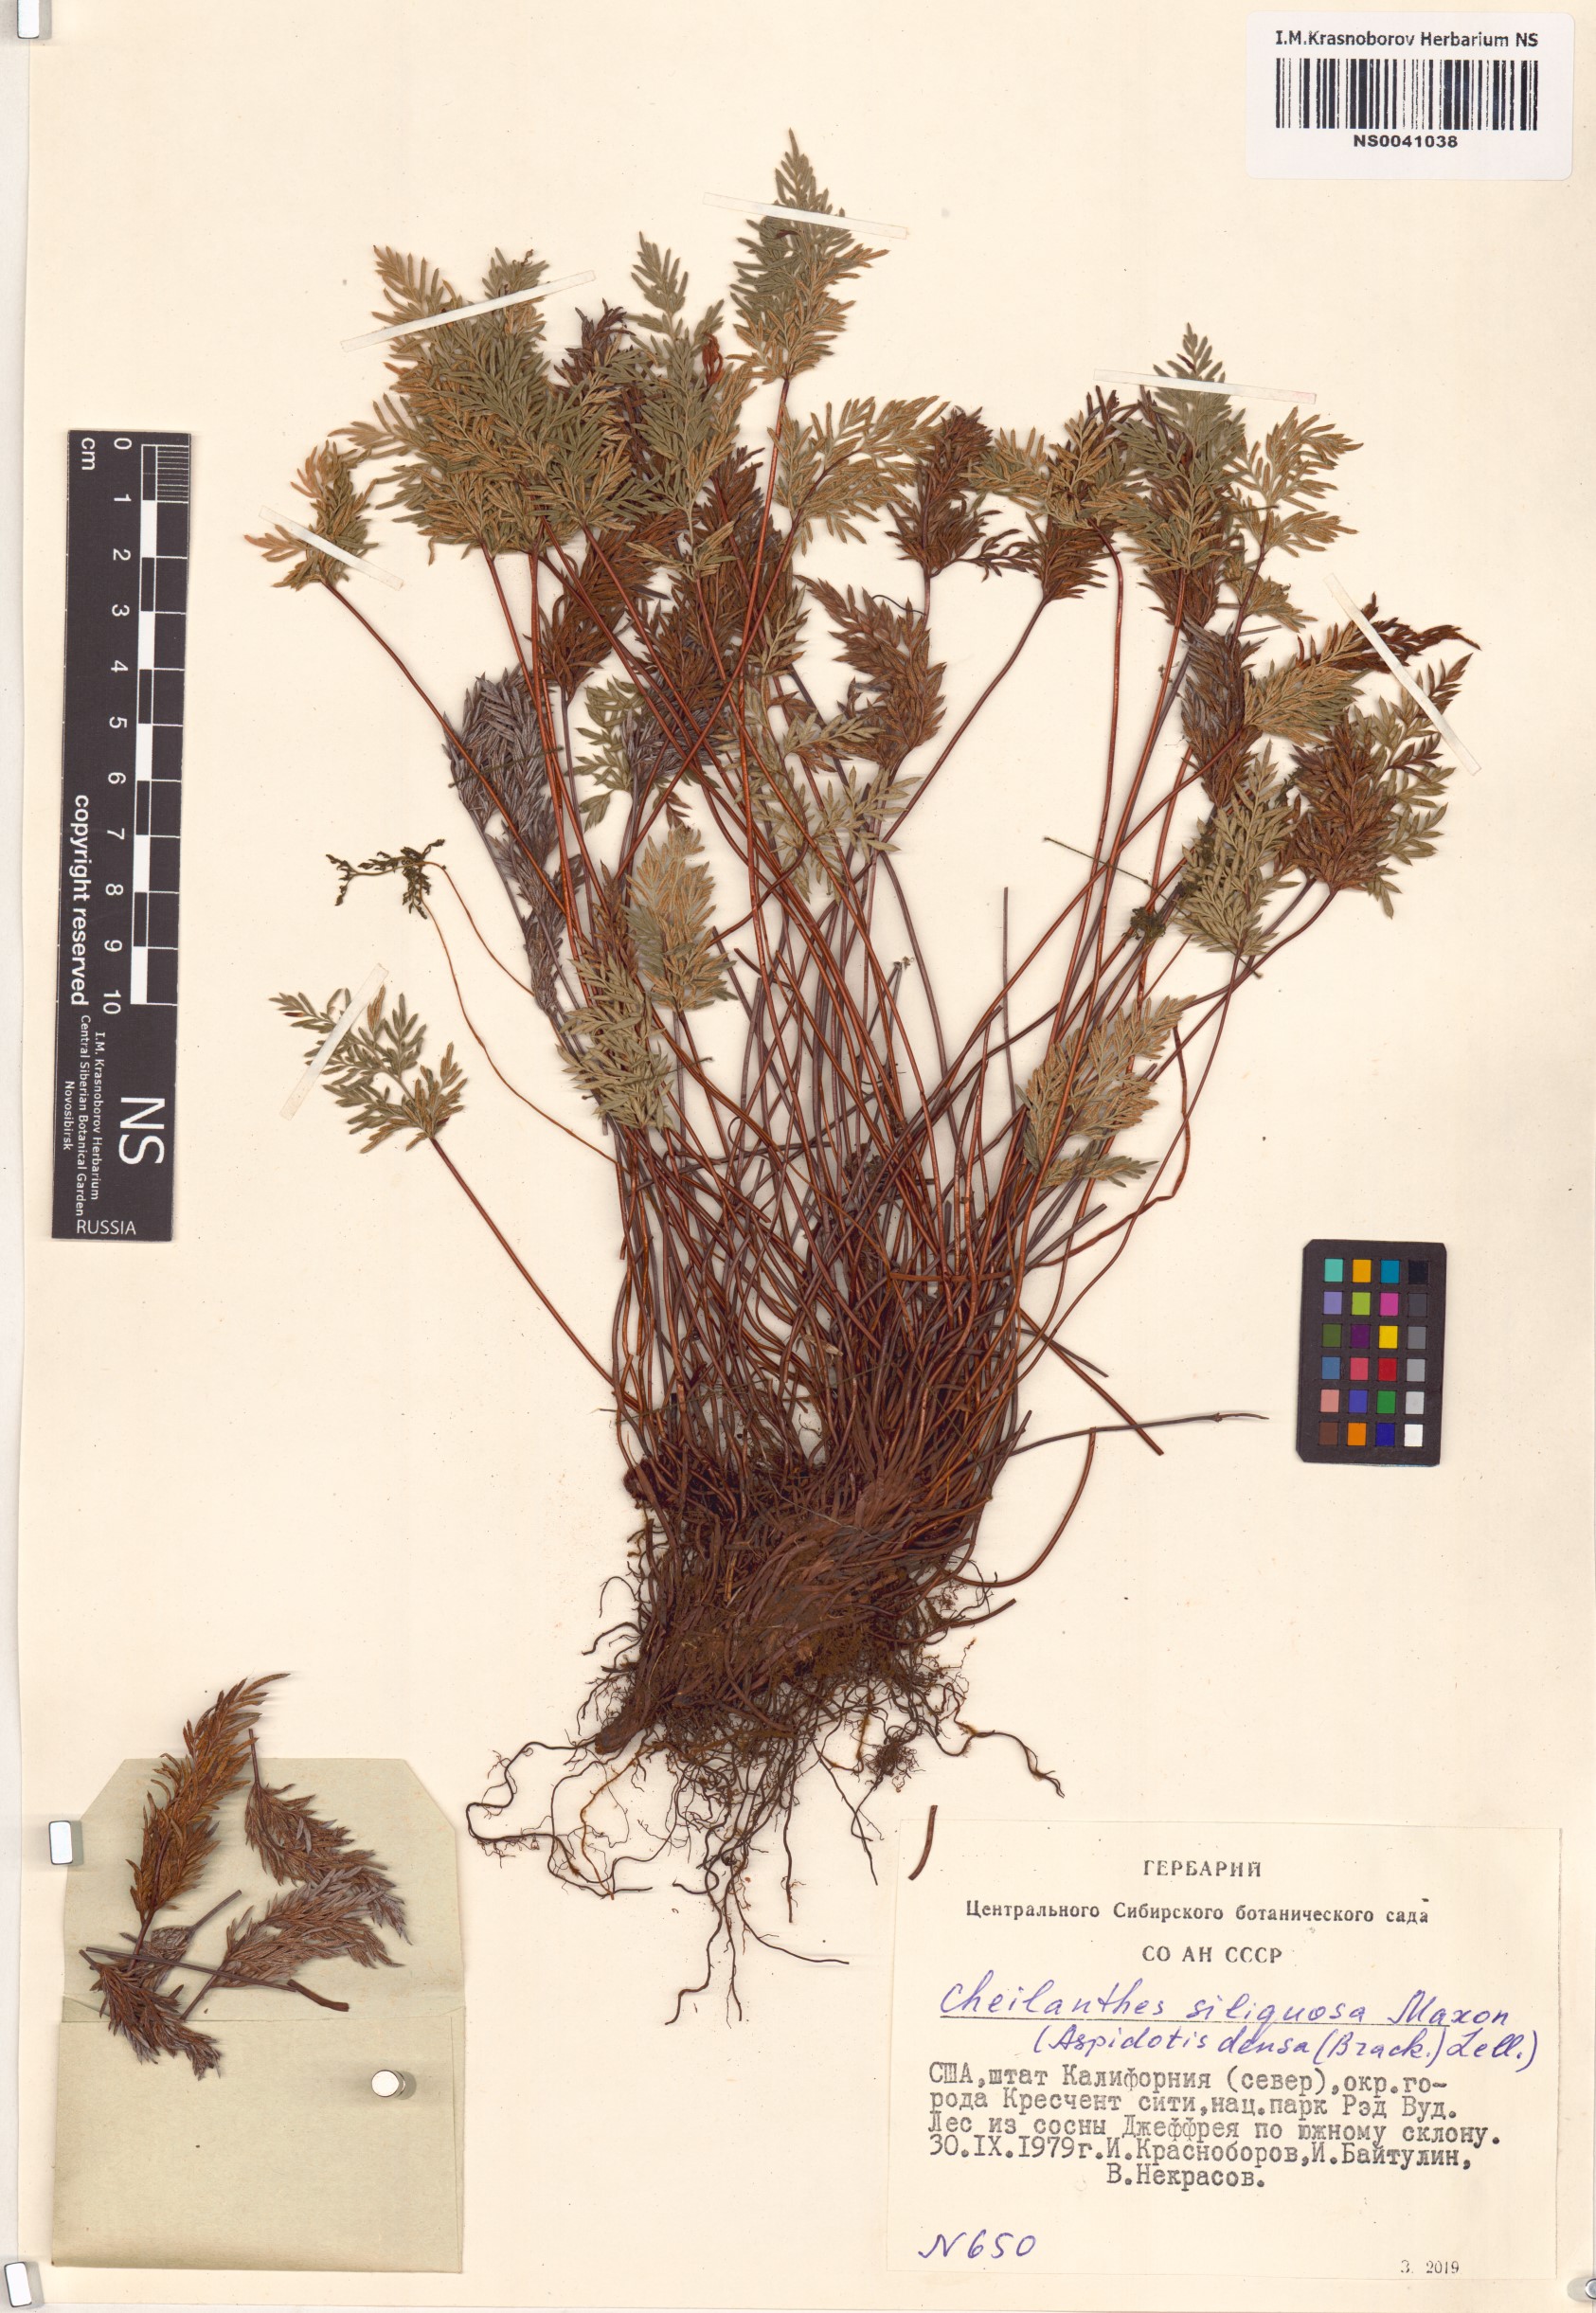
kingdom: Plantae
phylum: Tracheophyta
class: Polypodiopsida
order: Polypodiales
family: Pteridaceae
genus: Aspidotis
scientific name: Aspidotis densa
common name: Indian's dream
